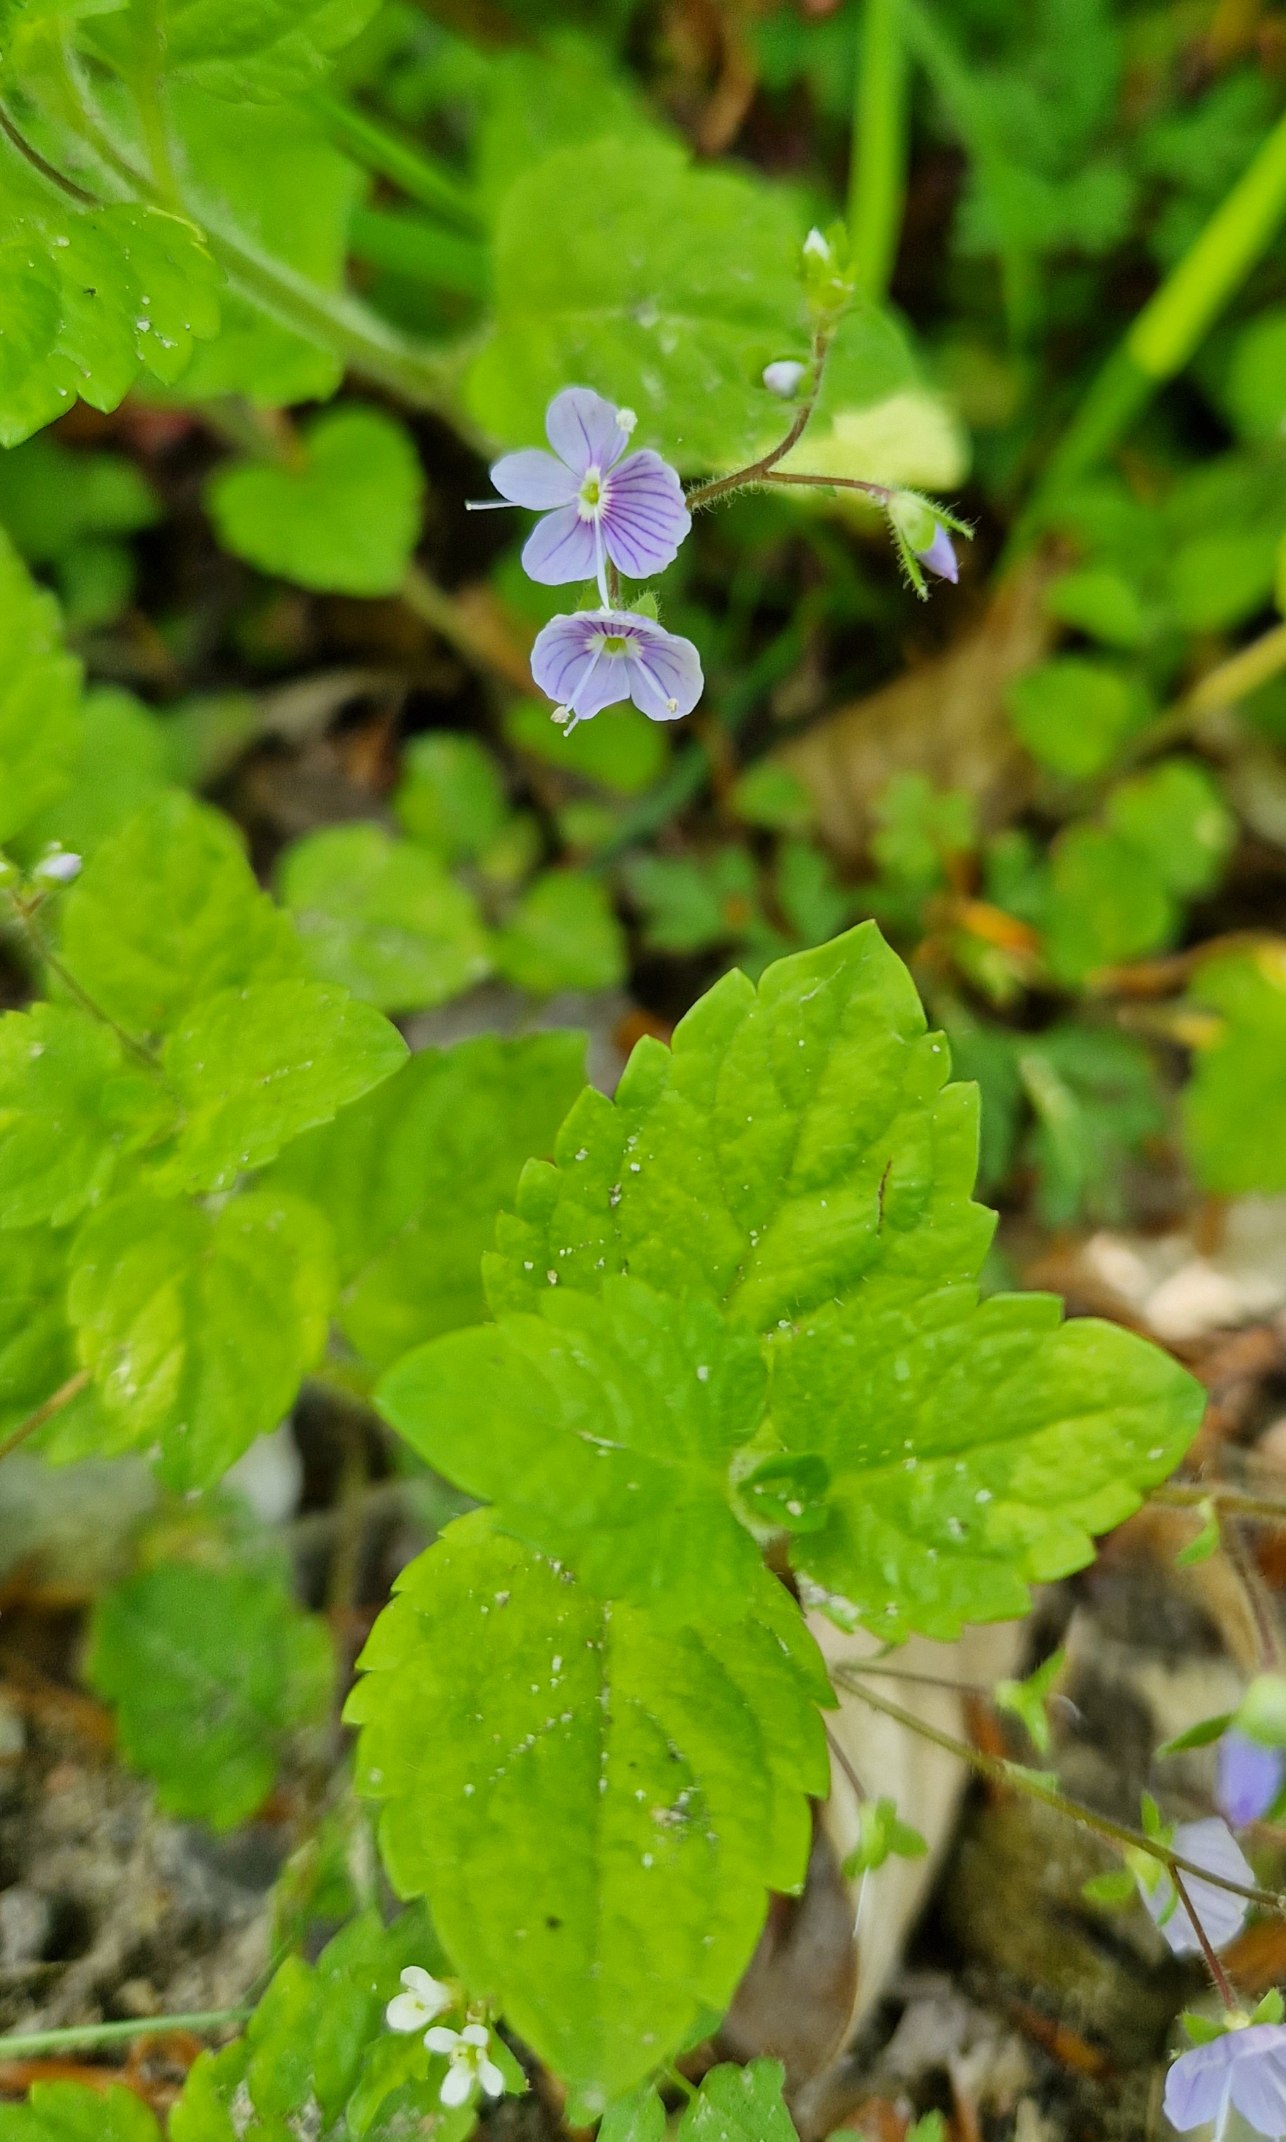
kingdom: Plantae
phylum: Tracheophyta
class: Magnoliopsida
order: Lamiales
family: Plantaginaceae
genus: Veronica
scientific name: Veronica montana
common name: Bjerg-ærenpris
